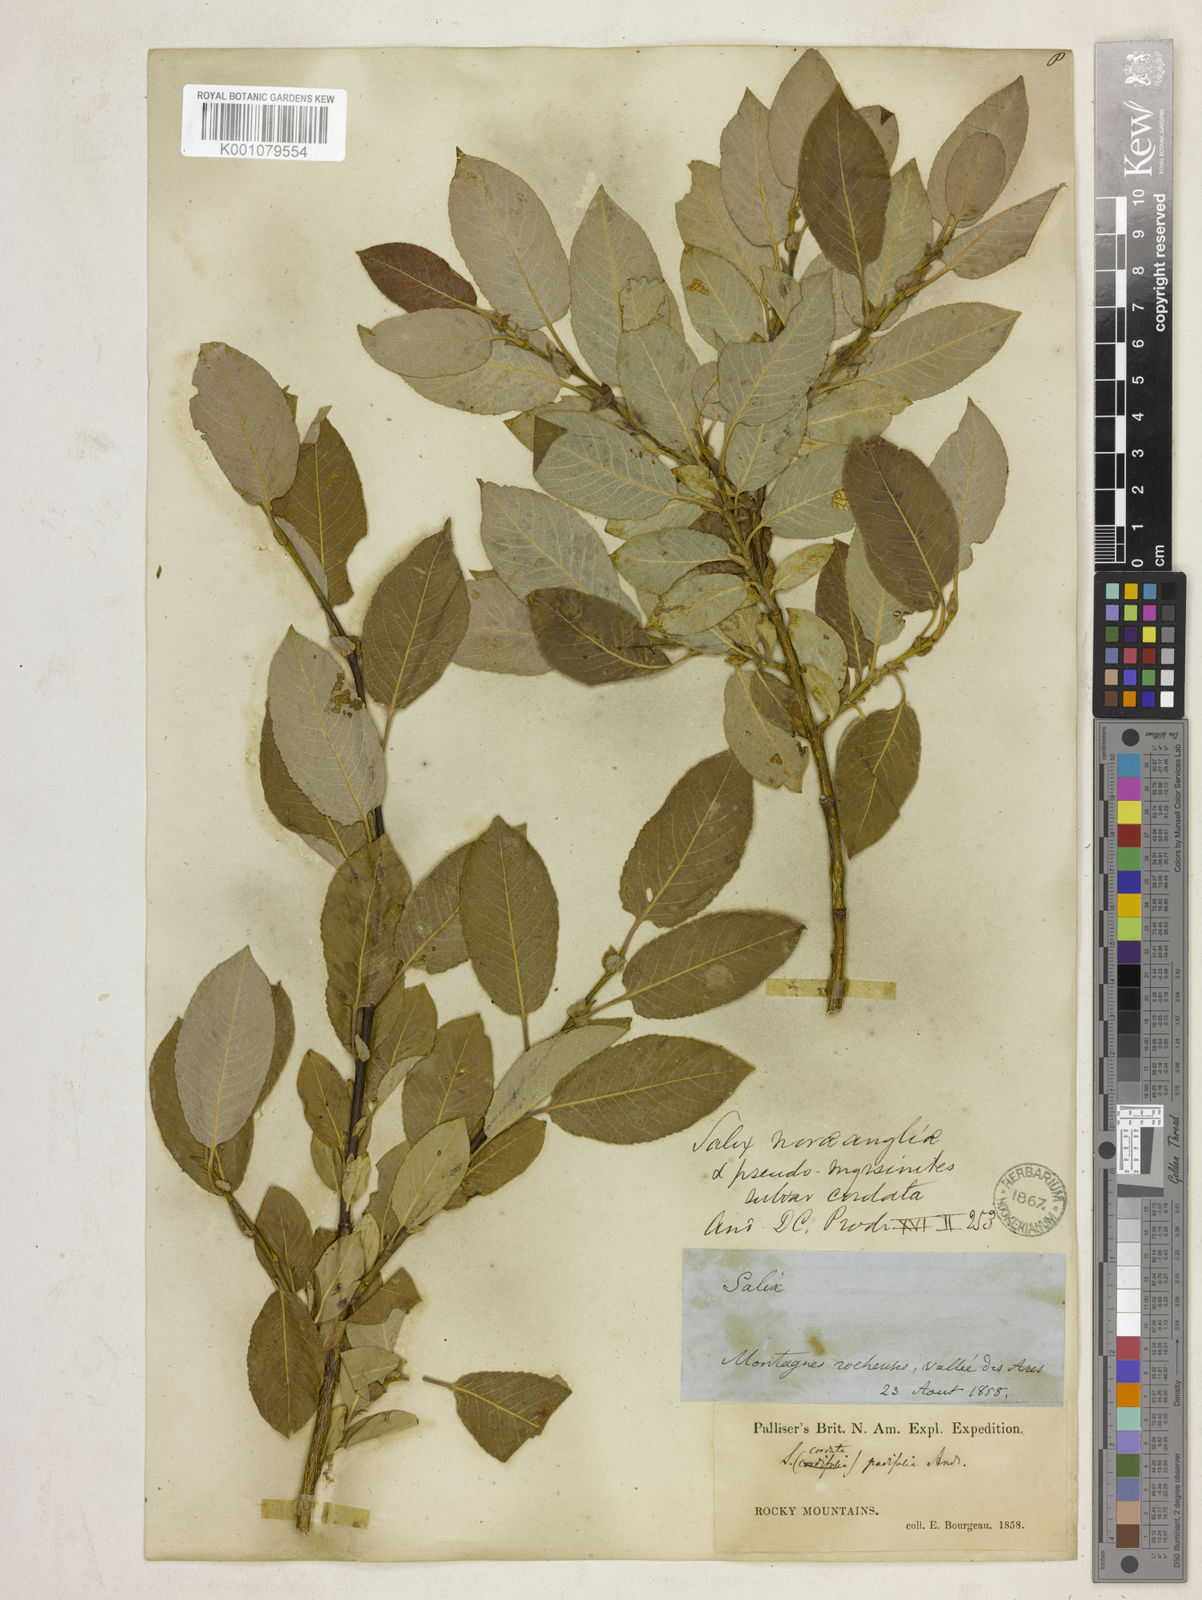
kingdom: Plantae
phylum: Tracheophyta
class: Magnoliopsida
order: Malpighiales
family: Salicaceae
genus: Salix
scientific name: Salix myrtillifolia
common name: Bilberry willow
